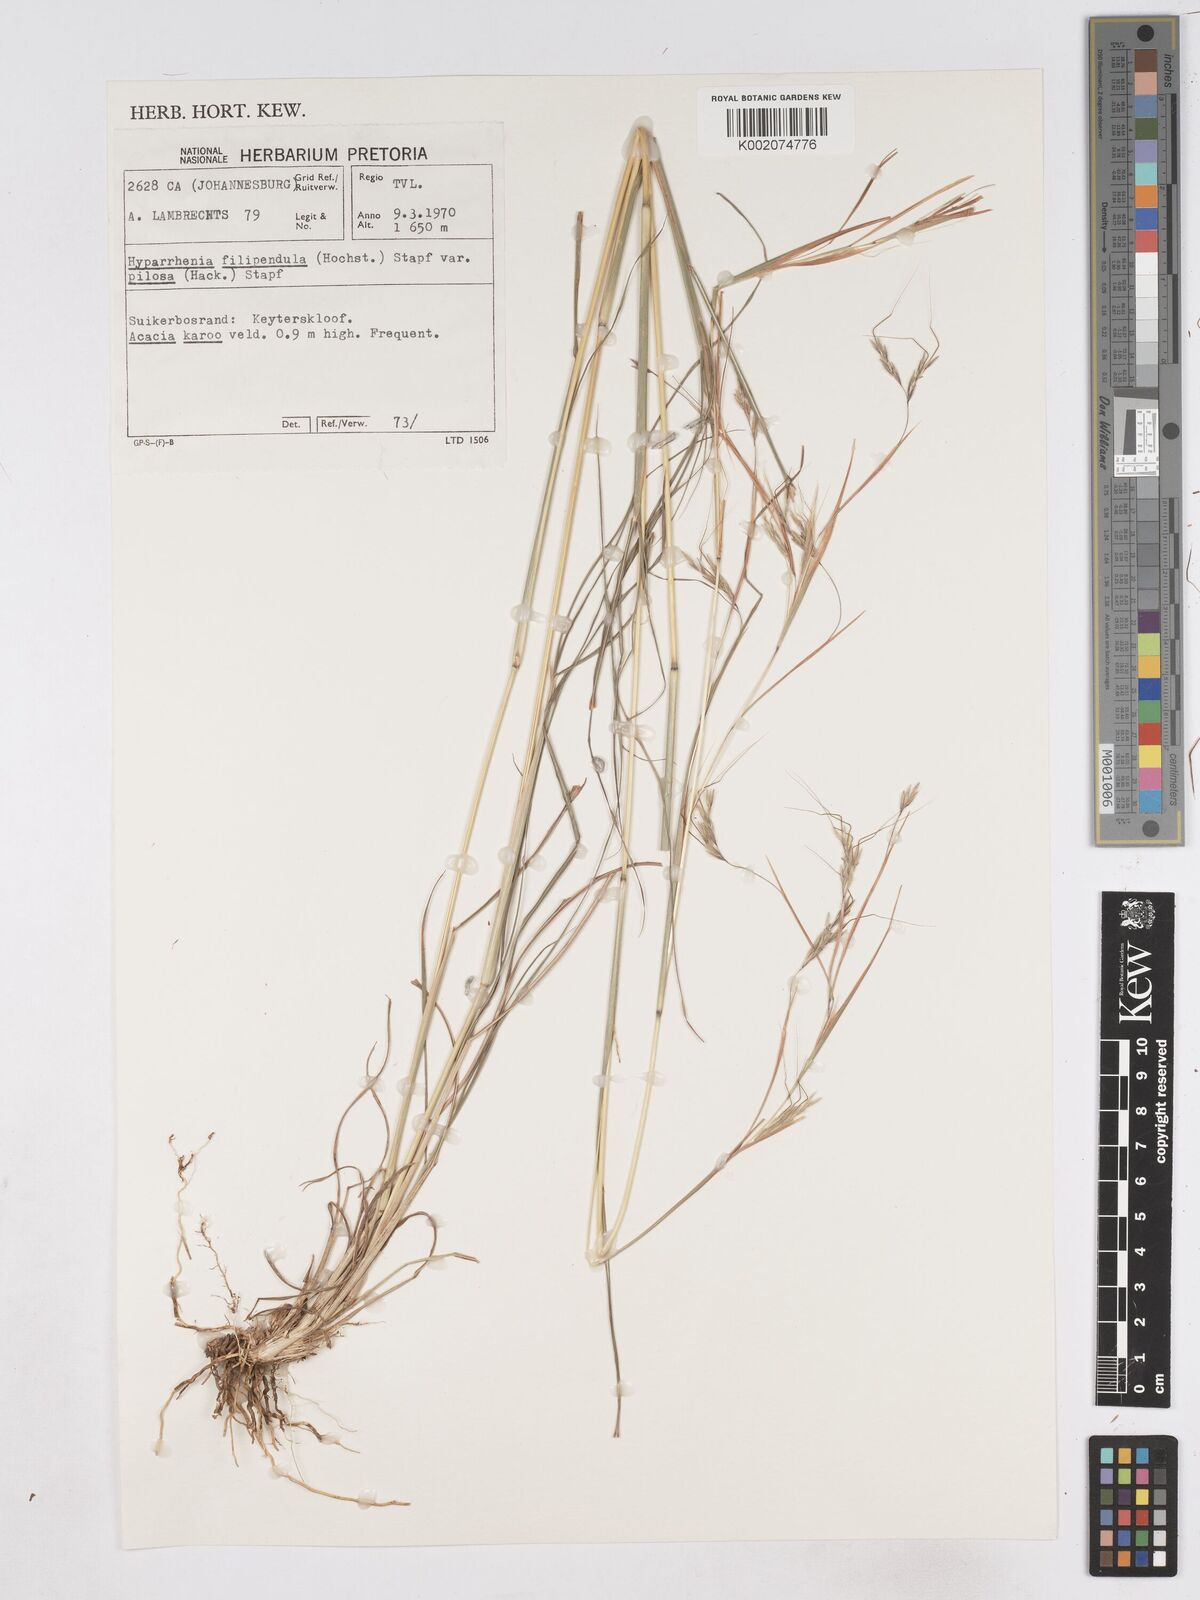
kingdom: Plantae
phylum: Tracheophyta
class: Liliopsida
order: Poales
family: Poaceae
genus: Hyparrhenia
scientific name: Hyparrhenia filipendula
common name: Tambookie grass
